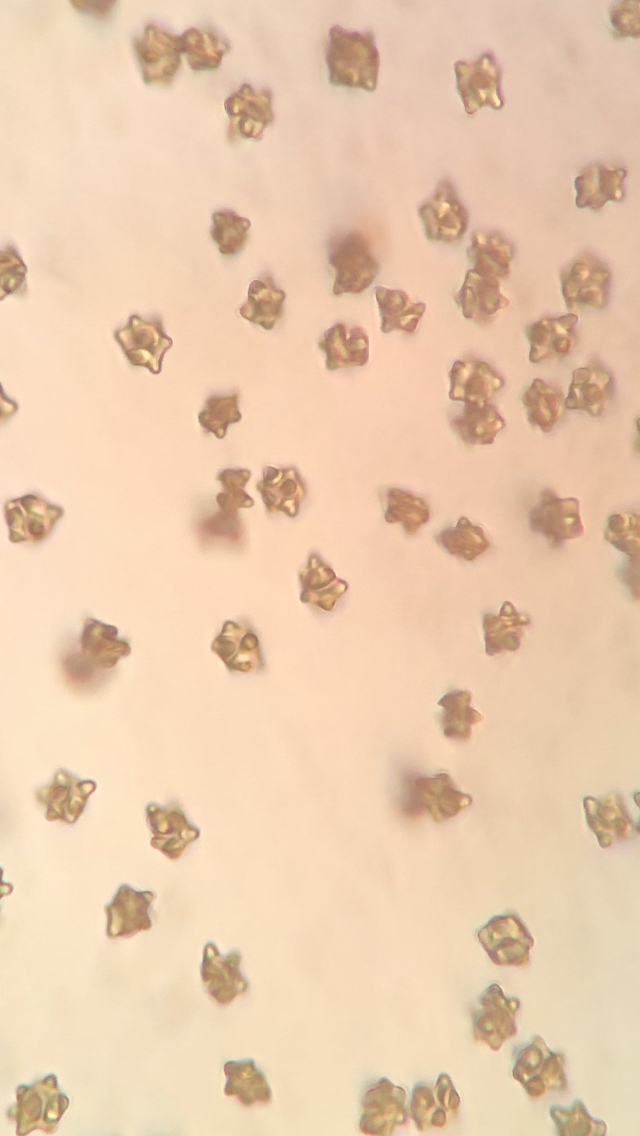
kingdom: Fungi
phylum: Basidiomycota
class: Agaricomycetes
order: Agaricales
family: Inocybaceae
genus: Inocybe
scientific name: Inocybe napipes
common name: roeknoldet trævlhat
